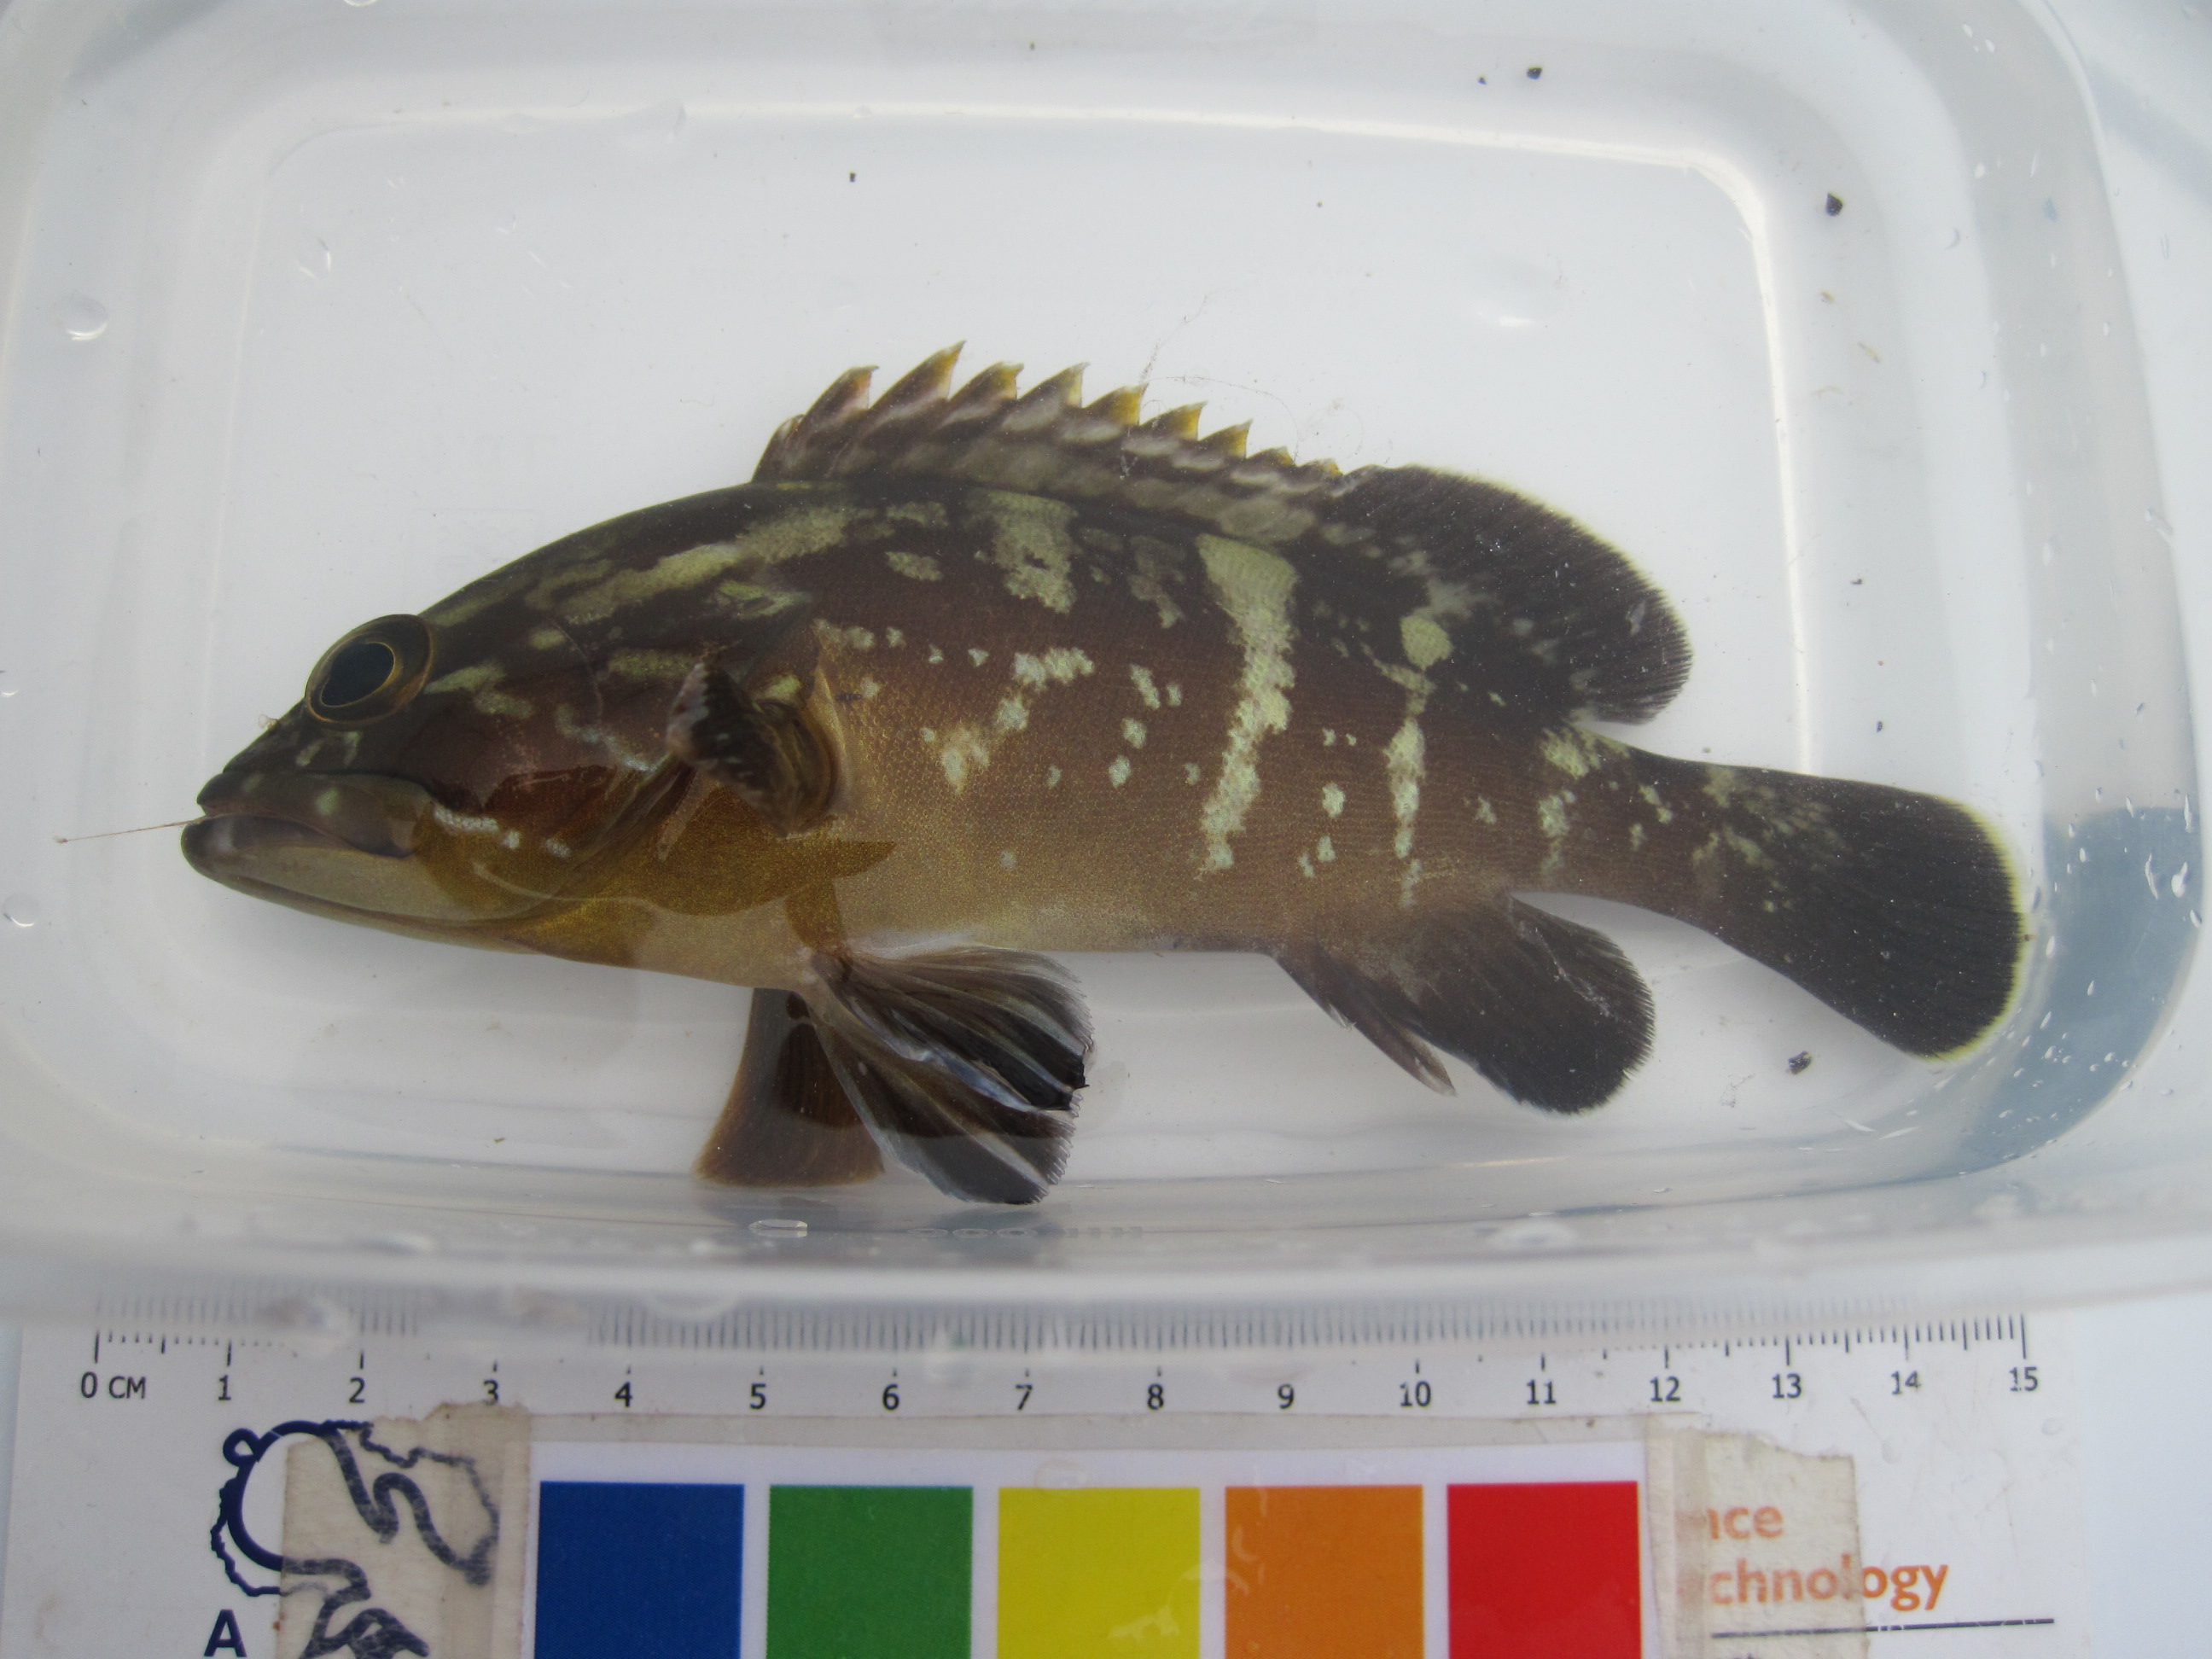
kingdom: Animalia
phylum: Chordata
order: Perciformes
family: Serranidae
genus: Epinephelus
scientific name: Epinephelus marginatus
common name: Dusky grouper
